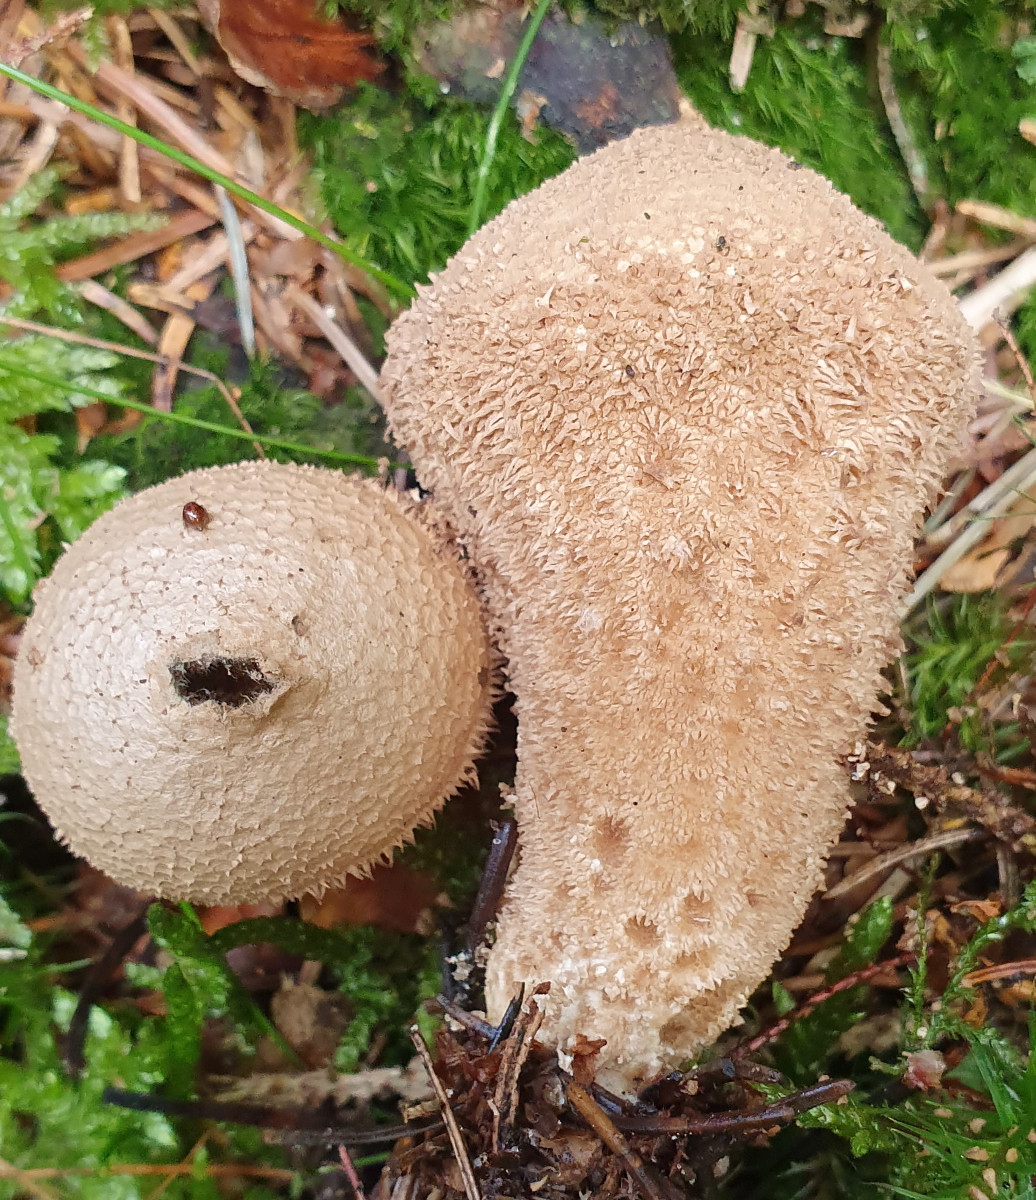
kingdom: Fungi
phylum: Basidiomycota
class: Agaricomycetes
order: Agaricales
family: Lycoperdaceae
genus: Lycoperdon
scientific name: Lycoperdon nigrescens
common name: sortagtig støvbold
